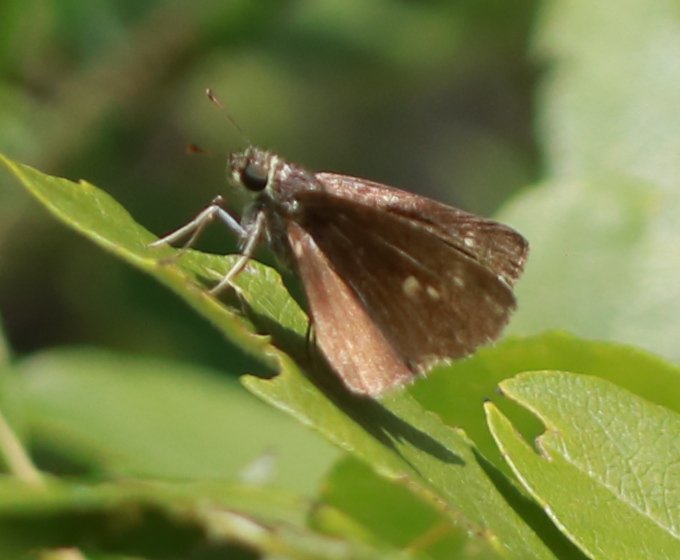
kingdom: Animalia
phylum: Arthropoda
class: Insecta
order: Lepidoptera
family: Hesperiidae
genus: Euphyes
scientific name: Euphyes vestris
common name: Dun Skipper
